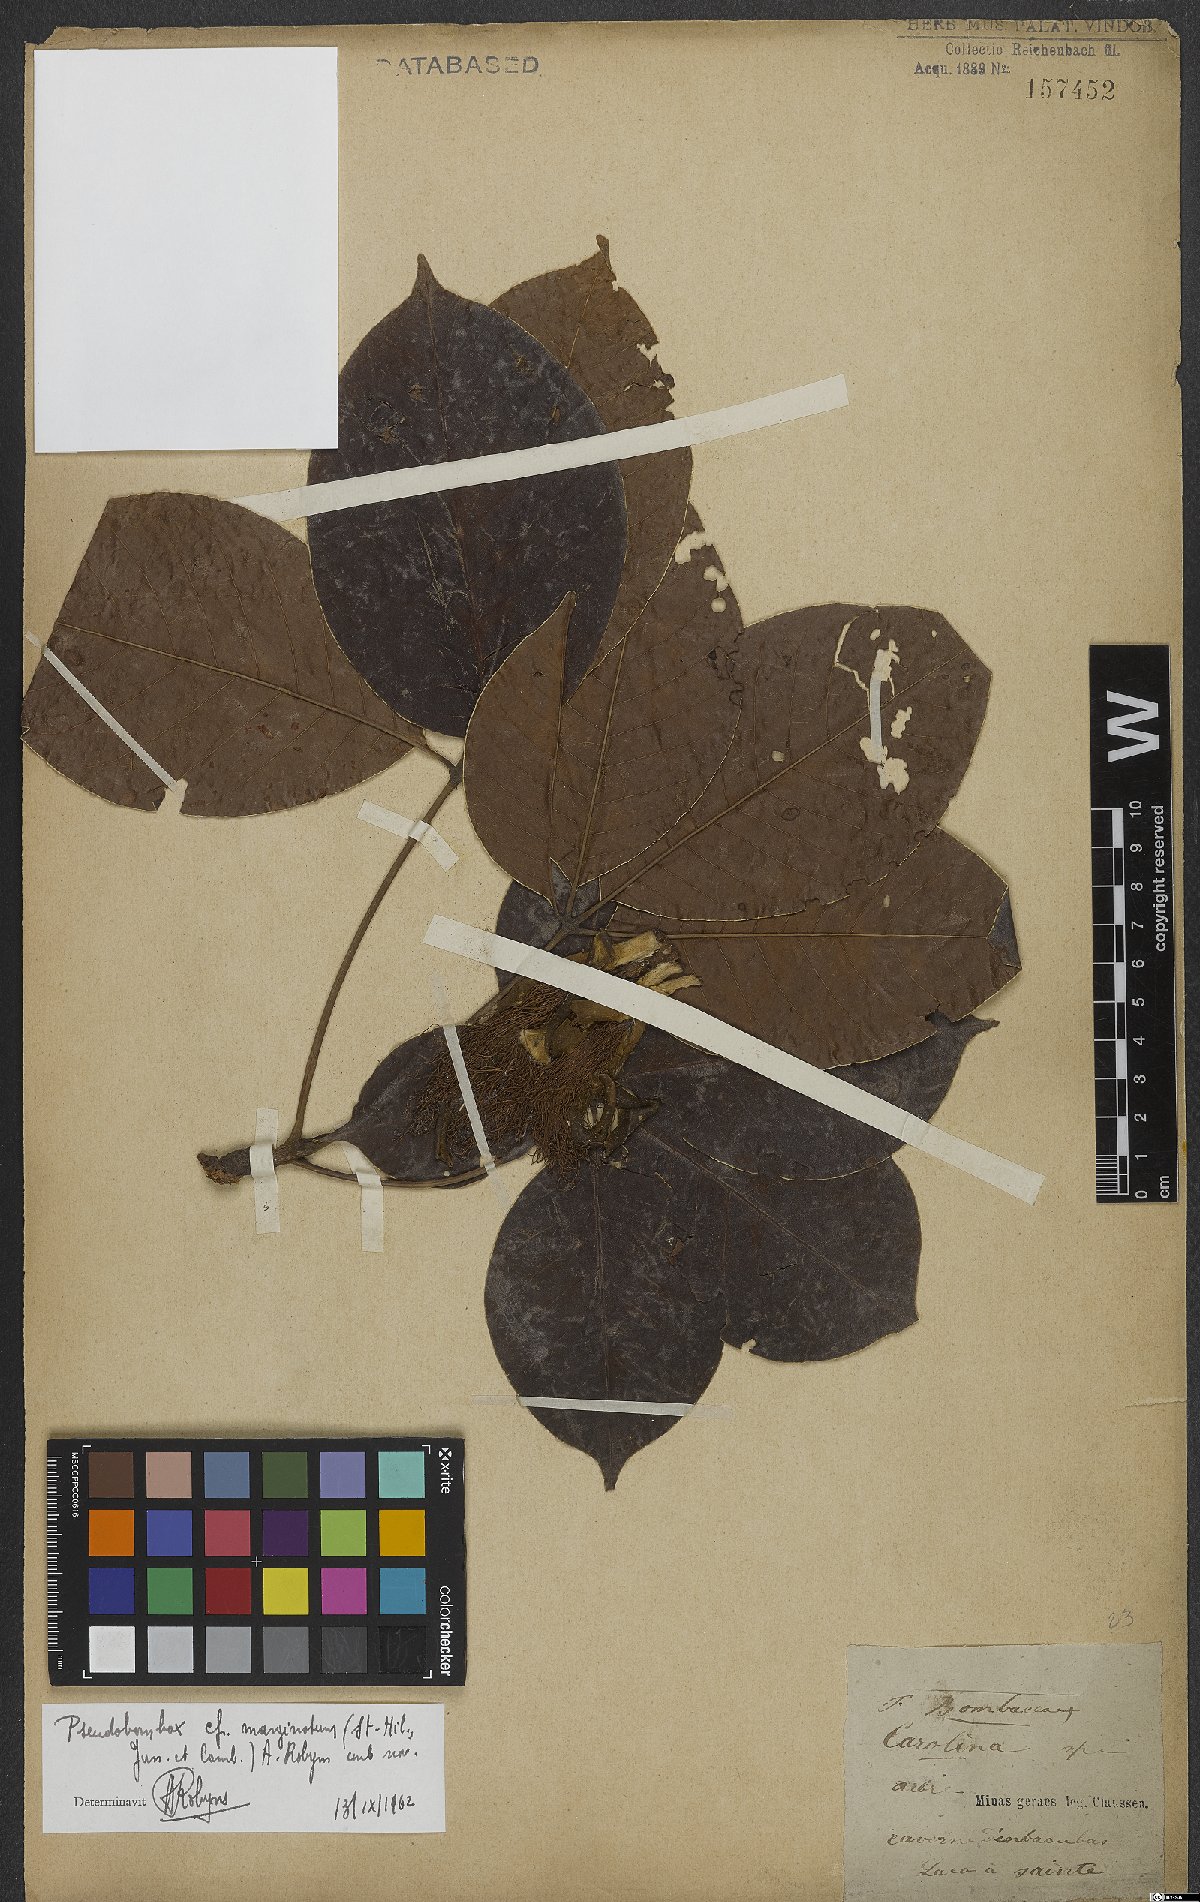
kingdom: Plantae
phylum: Tracheophyta
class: Magnoliopsida
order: Malvales
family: Malvaceae
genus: Pseudobombax
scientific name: Pseudobombax marginatum
